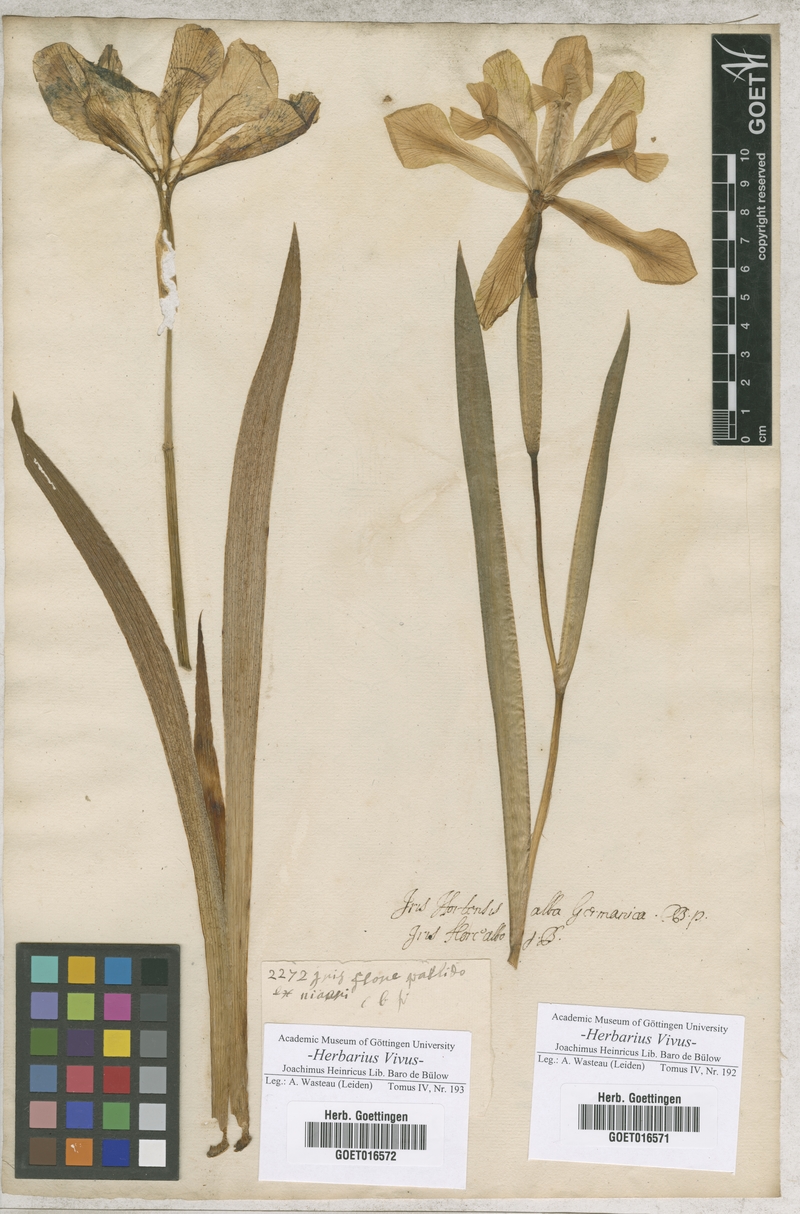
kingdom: Plantae
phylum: Tracheophyta
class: Liliopsida
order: Asparagales
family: Iridaceae
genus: Iris
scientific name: Iris
